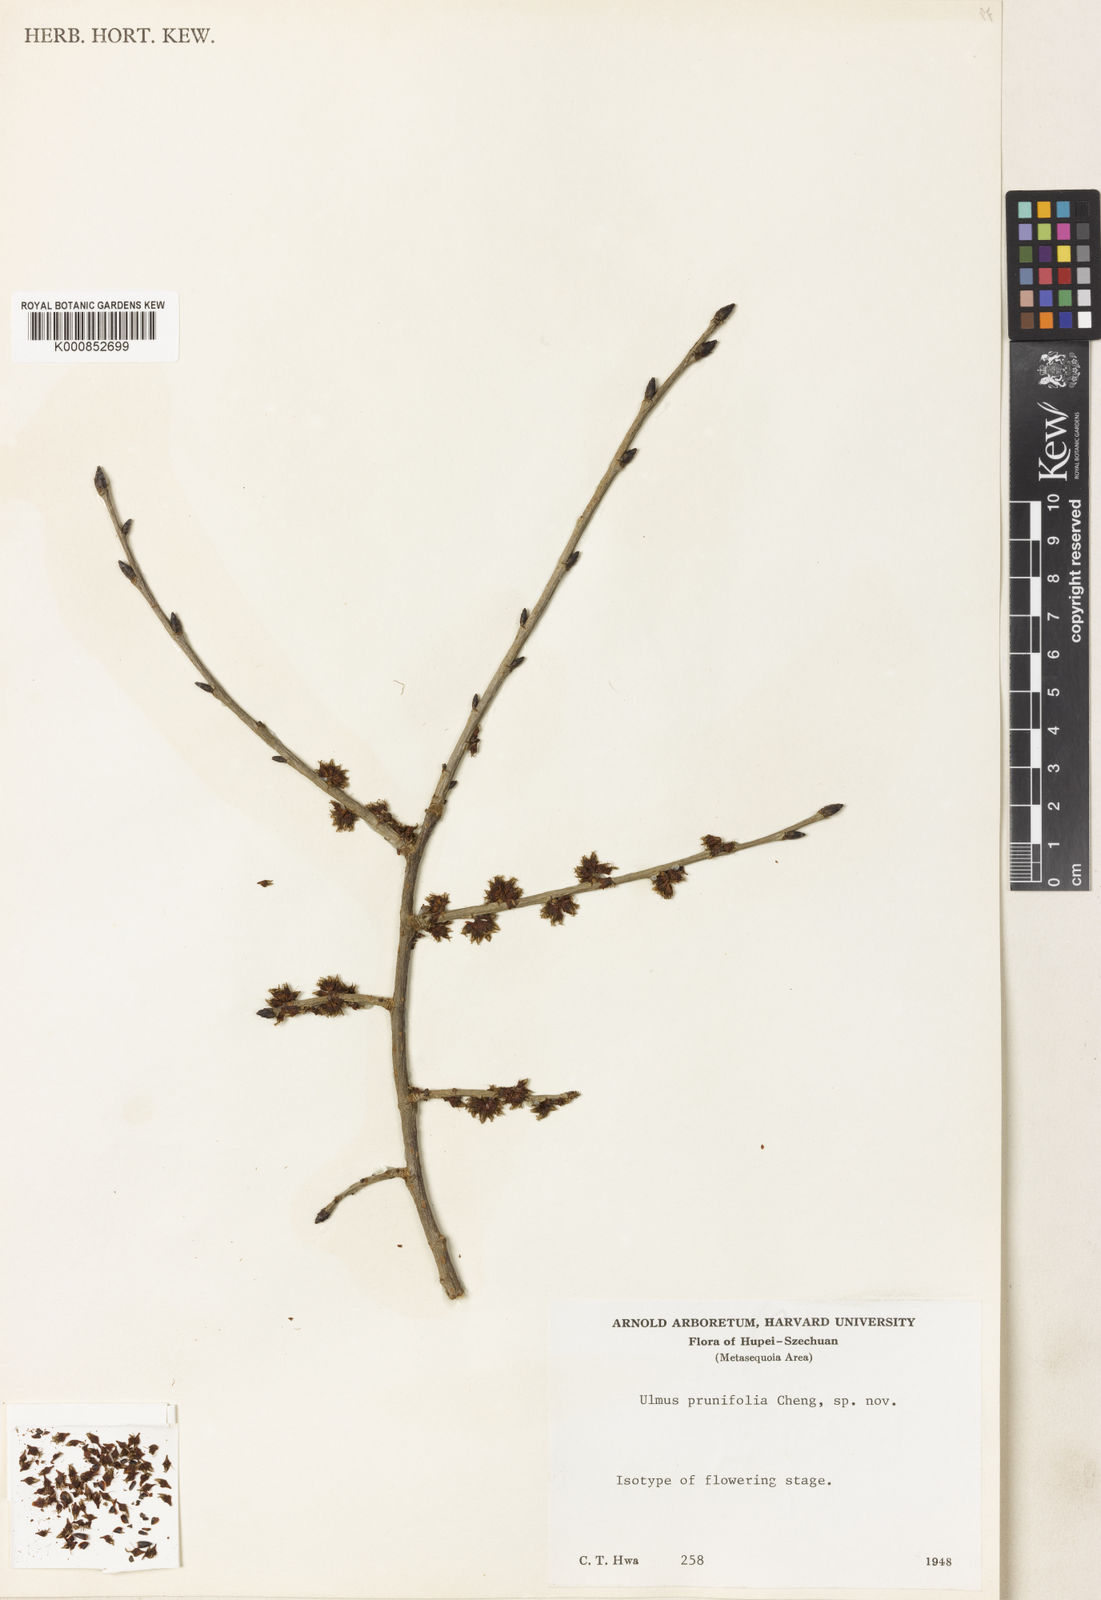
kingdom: Plantae
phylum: Tracheophyta
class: Magnoliopsida
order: Rosales
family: Ulmaceae
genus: Ulmus
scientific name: Ulmus prunifolia
